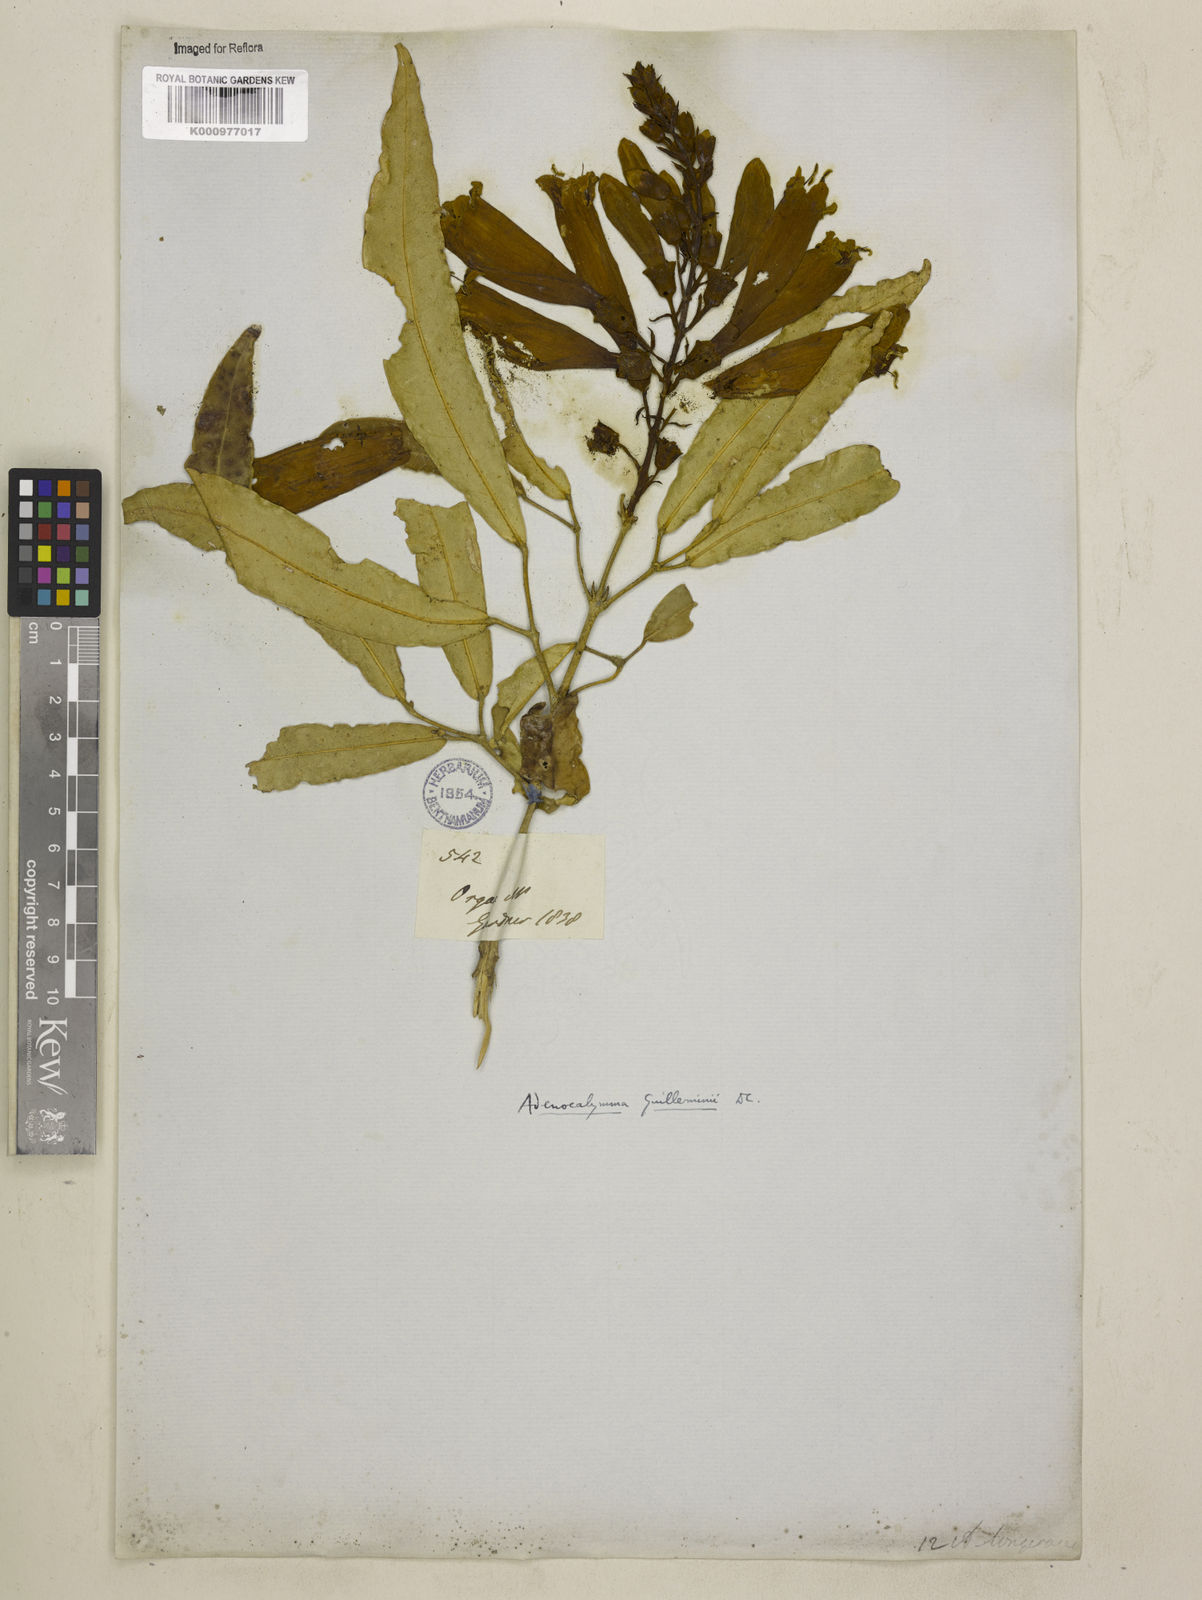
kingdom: Plantae
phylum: Tracheophyta
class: Magnoliopsida
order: Lamiales
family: Bignoniaceae
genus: Adenocalymma
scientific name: Adenocalymma ternatum
